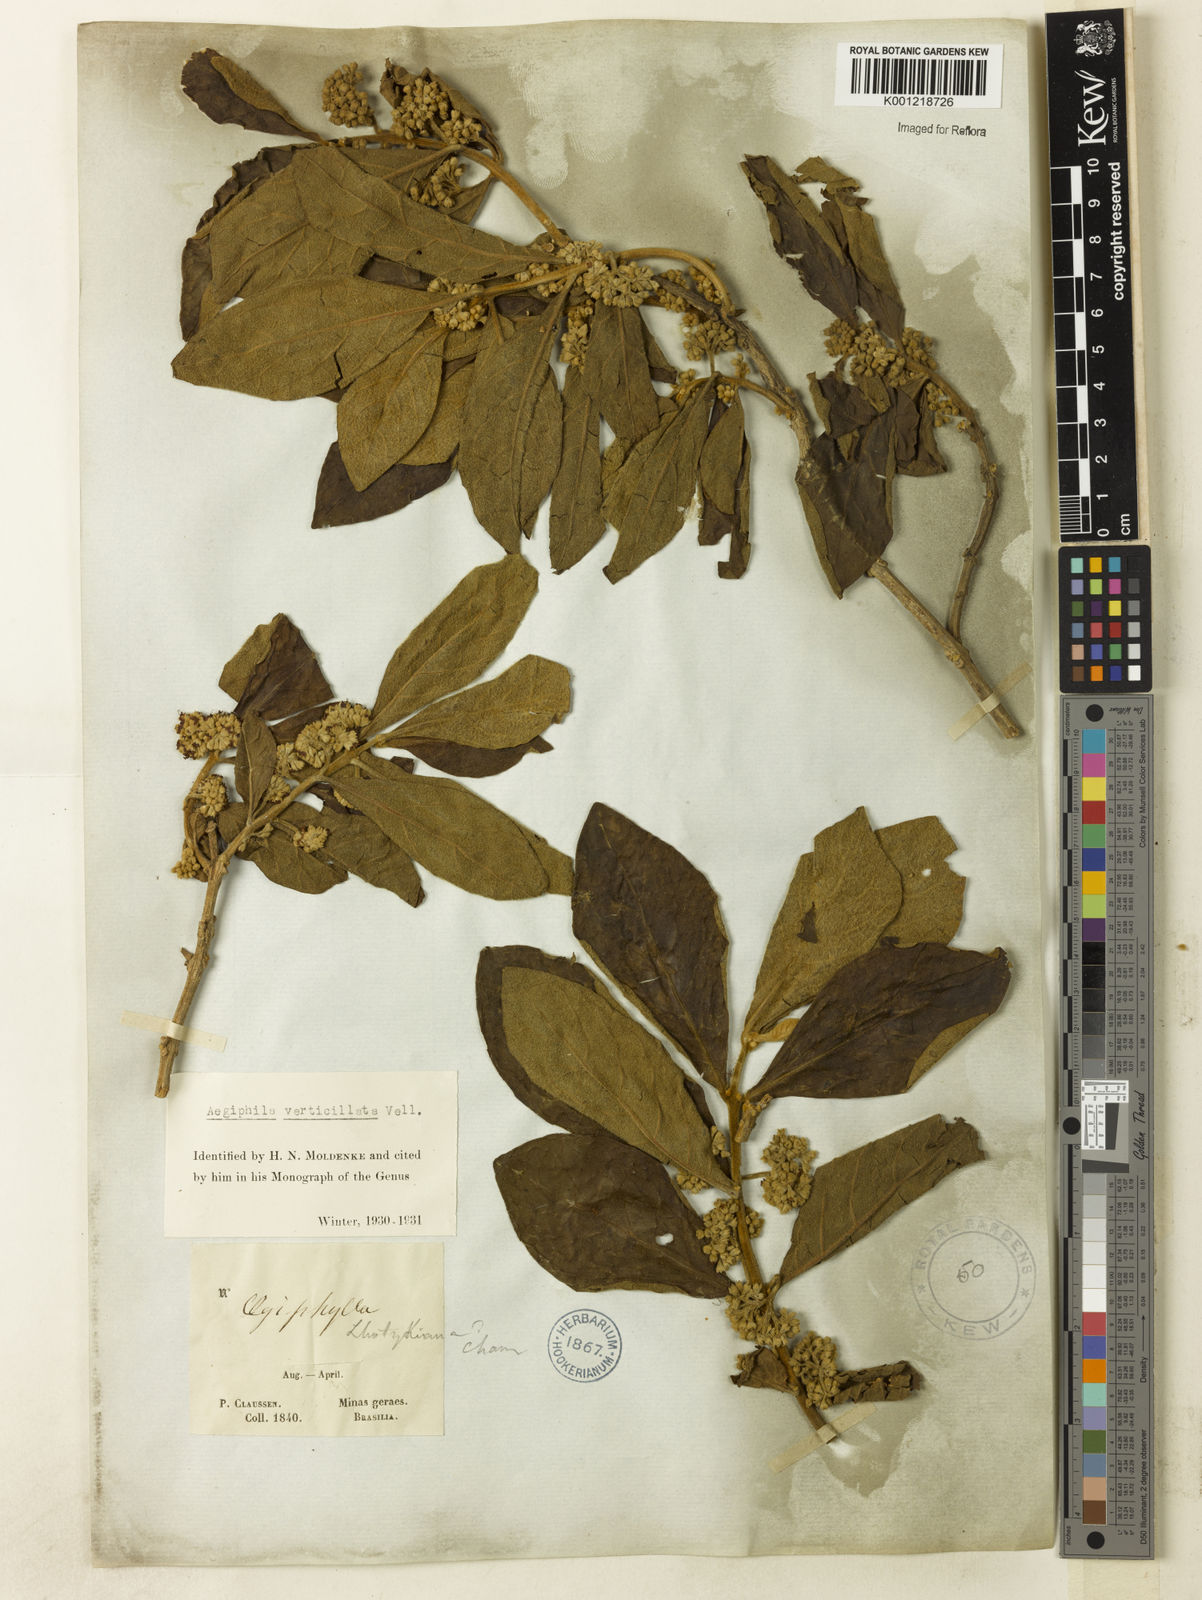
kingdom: Plantae
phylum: Tracheophyta
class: Magnoliopsida
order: Lamiales
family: Lamiaceae
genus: Aegiphila
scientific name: Aegiphila verticillata
